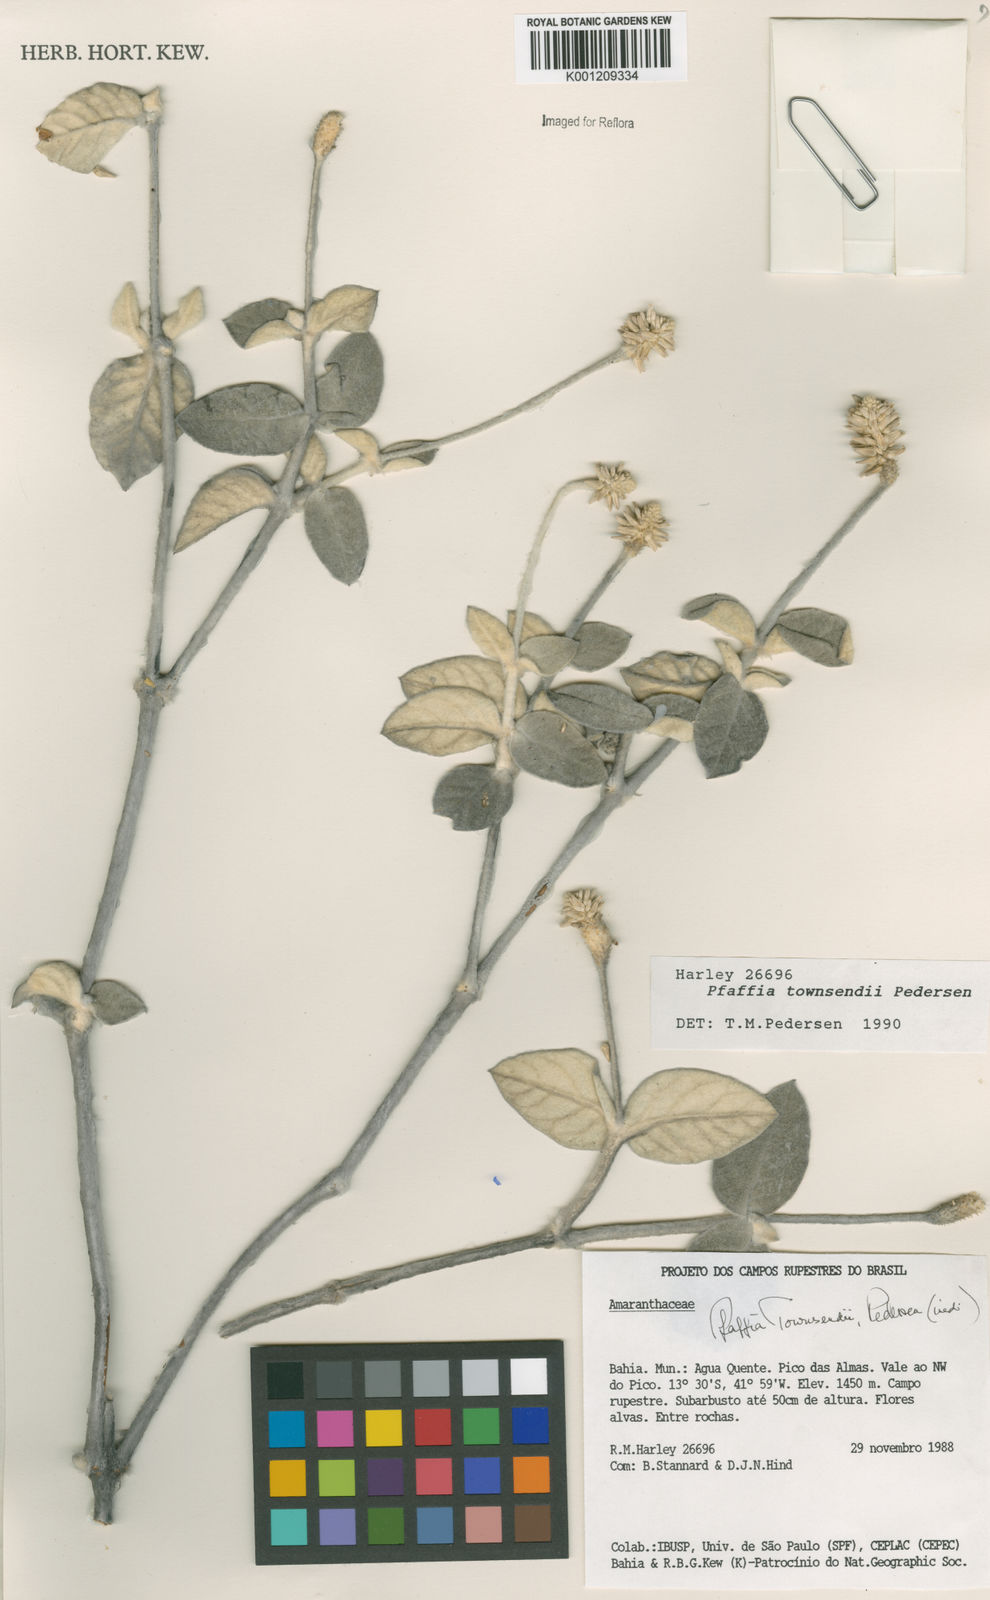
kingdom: Plantae
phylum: Tracheophyta
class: Magnoliopsida
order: Caryophyllales
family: Amaranthaceae
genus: Pfaffia
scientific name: Pfaffia townsendii
